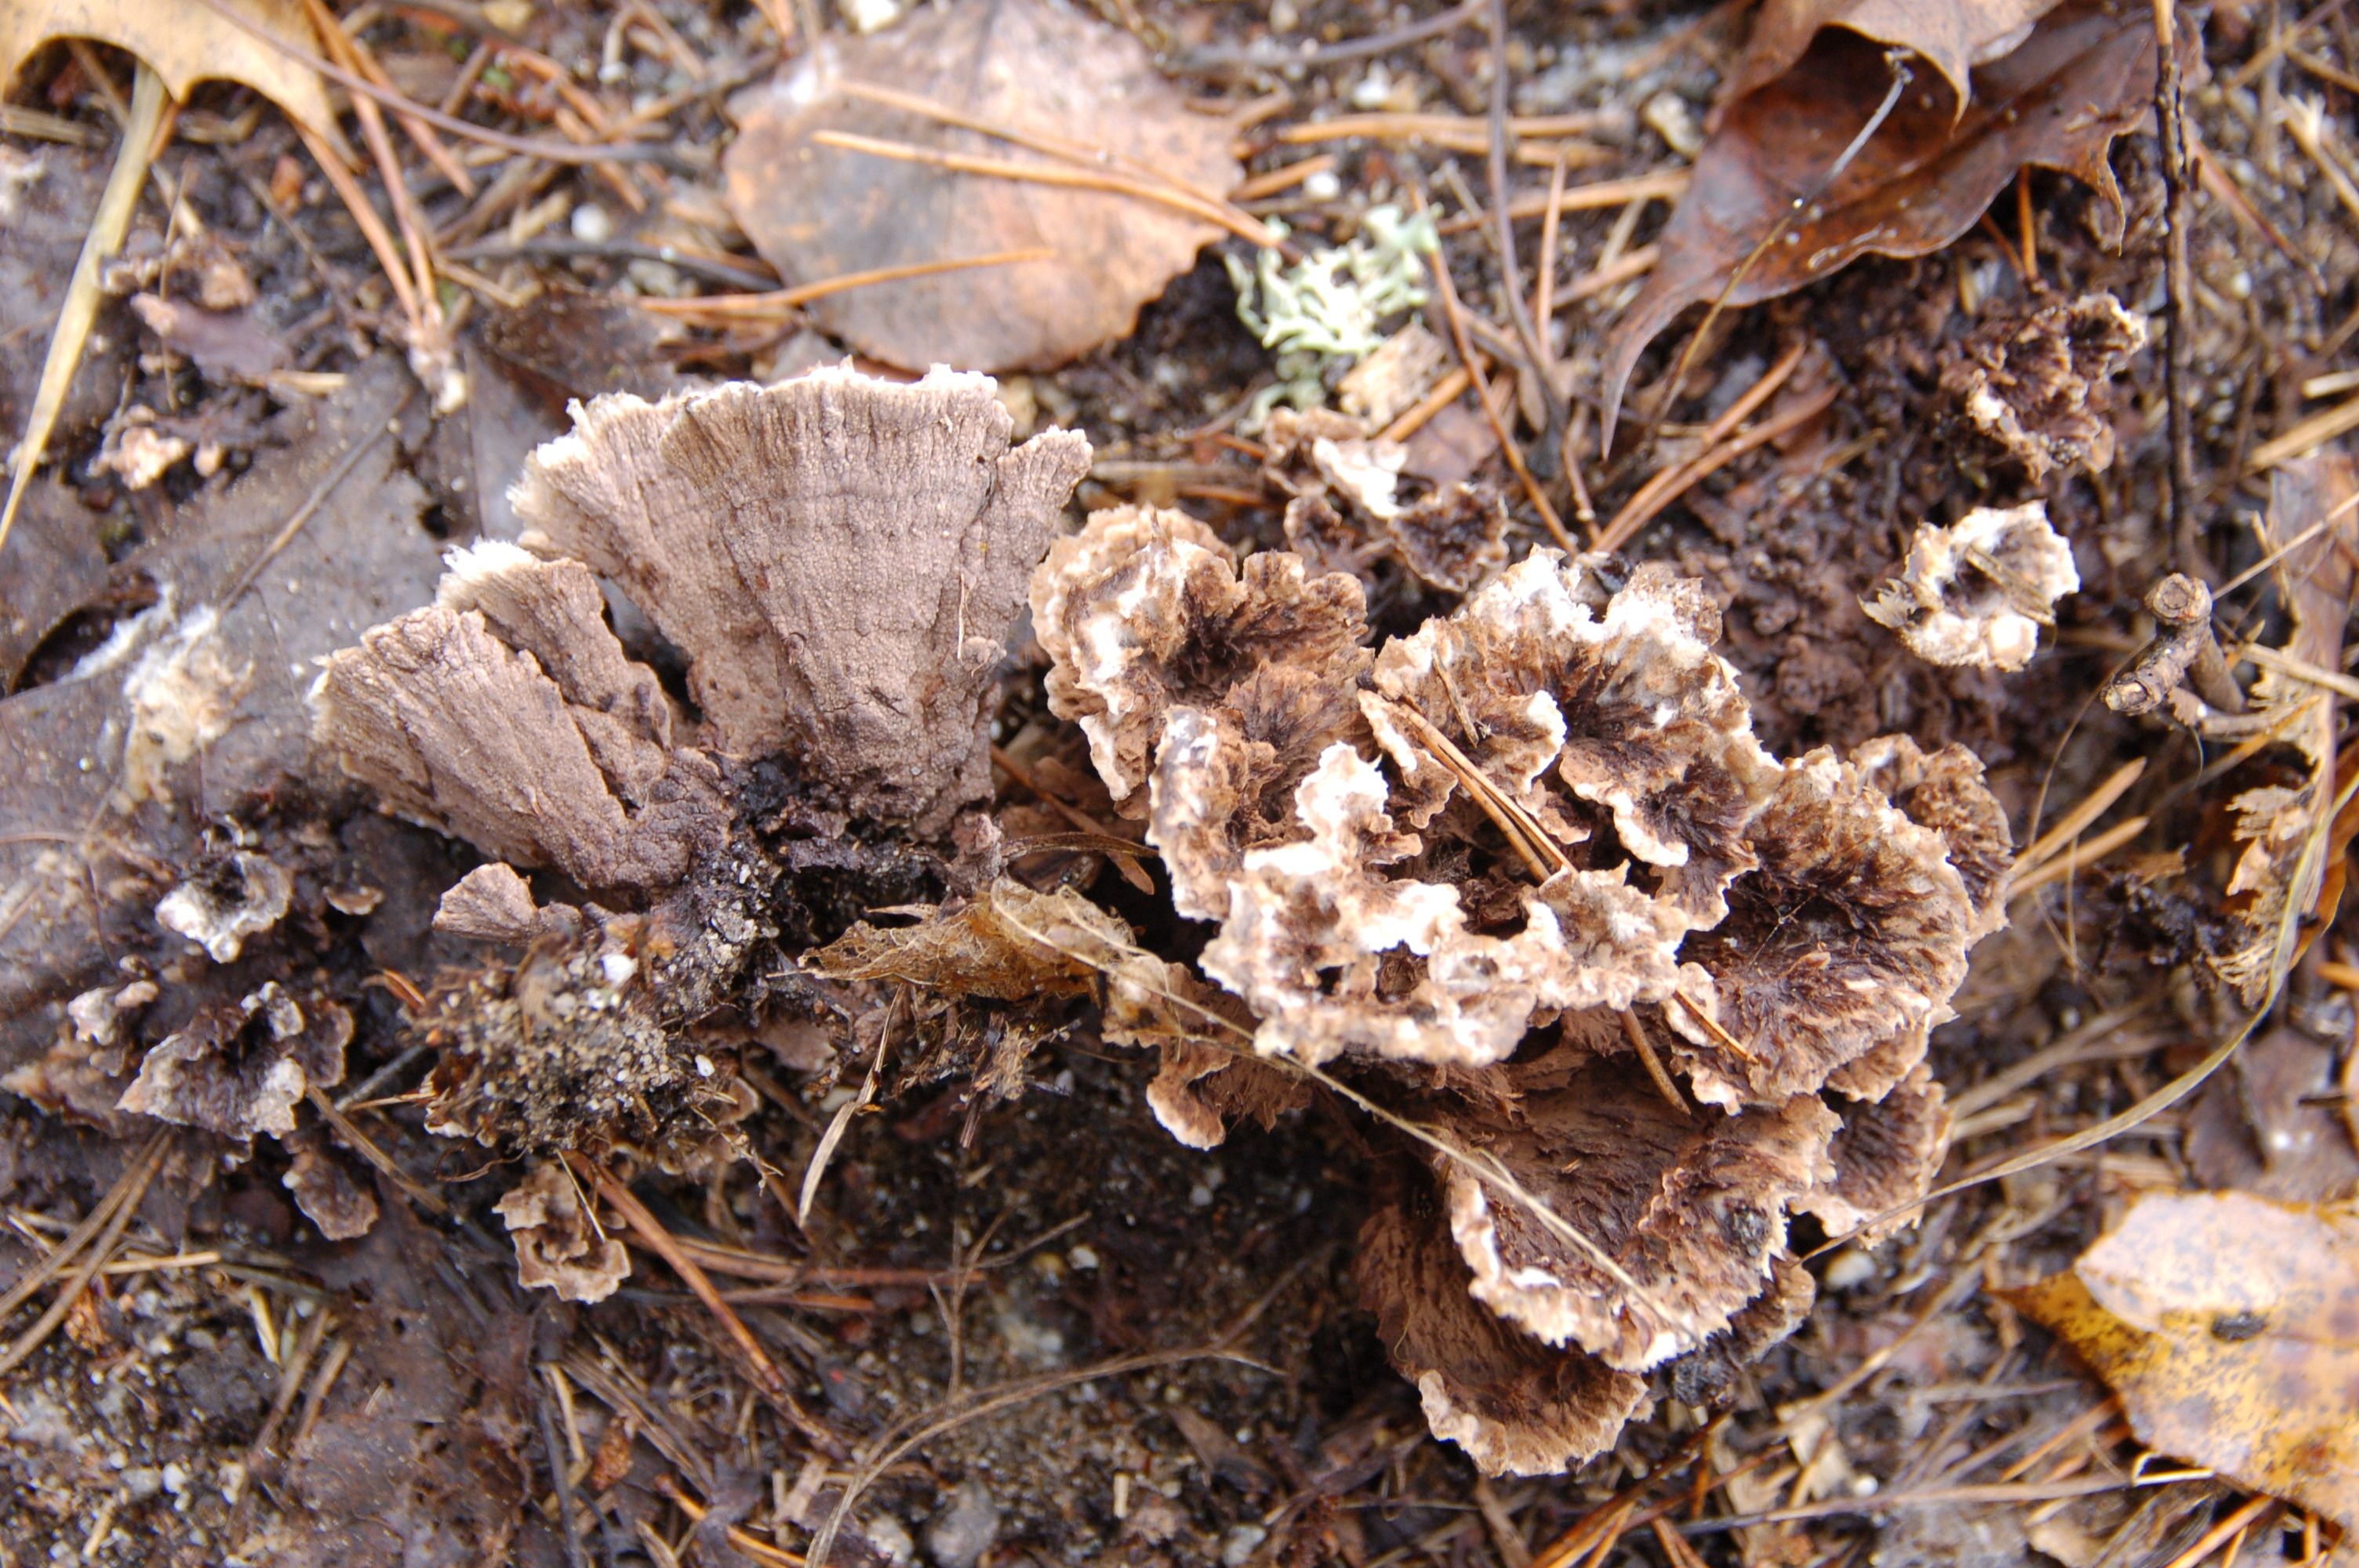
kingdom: Fungi
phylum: Basidiomycota
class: Agaricomycetes
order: Thelephorales
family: Thelephoraceae
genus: Thelephora
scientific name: Thelephora terrestris
